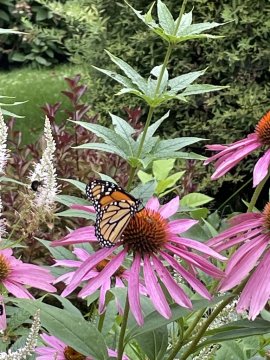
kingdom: Animalia
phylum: Arthropoda
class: Insecta
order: Lepidoptera
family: Nymphalidae
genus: Danaus
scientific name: Danaus plexippus
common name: Monarch
